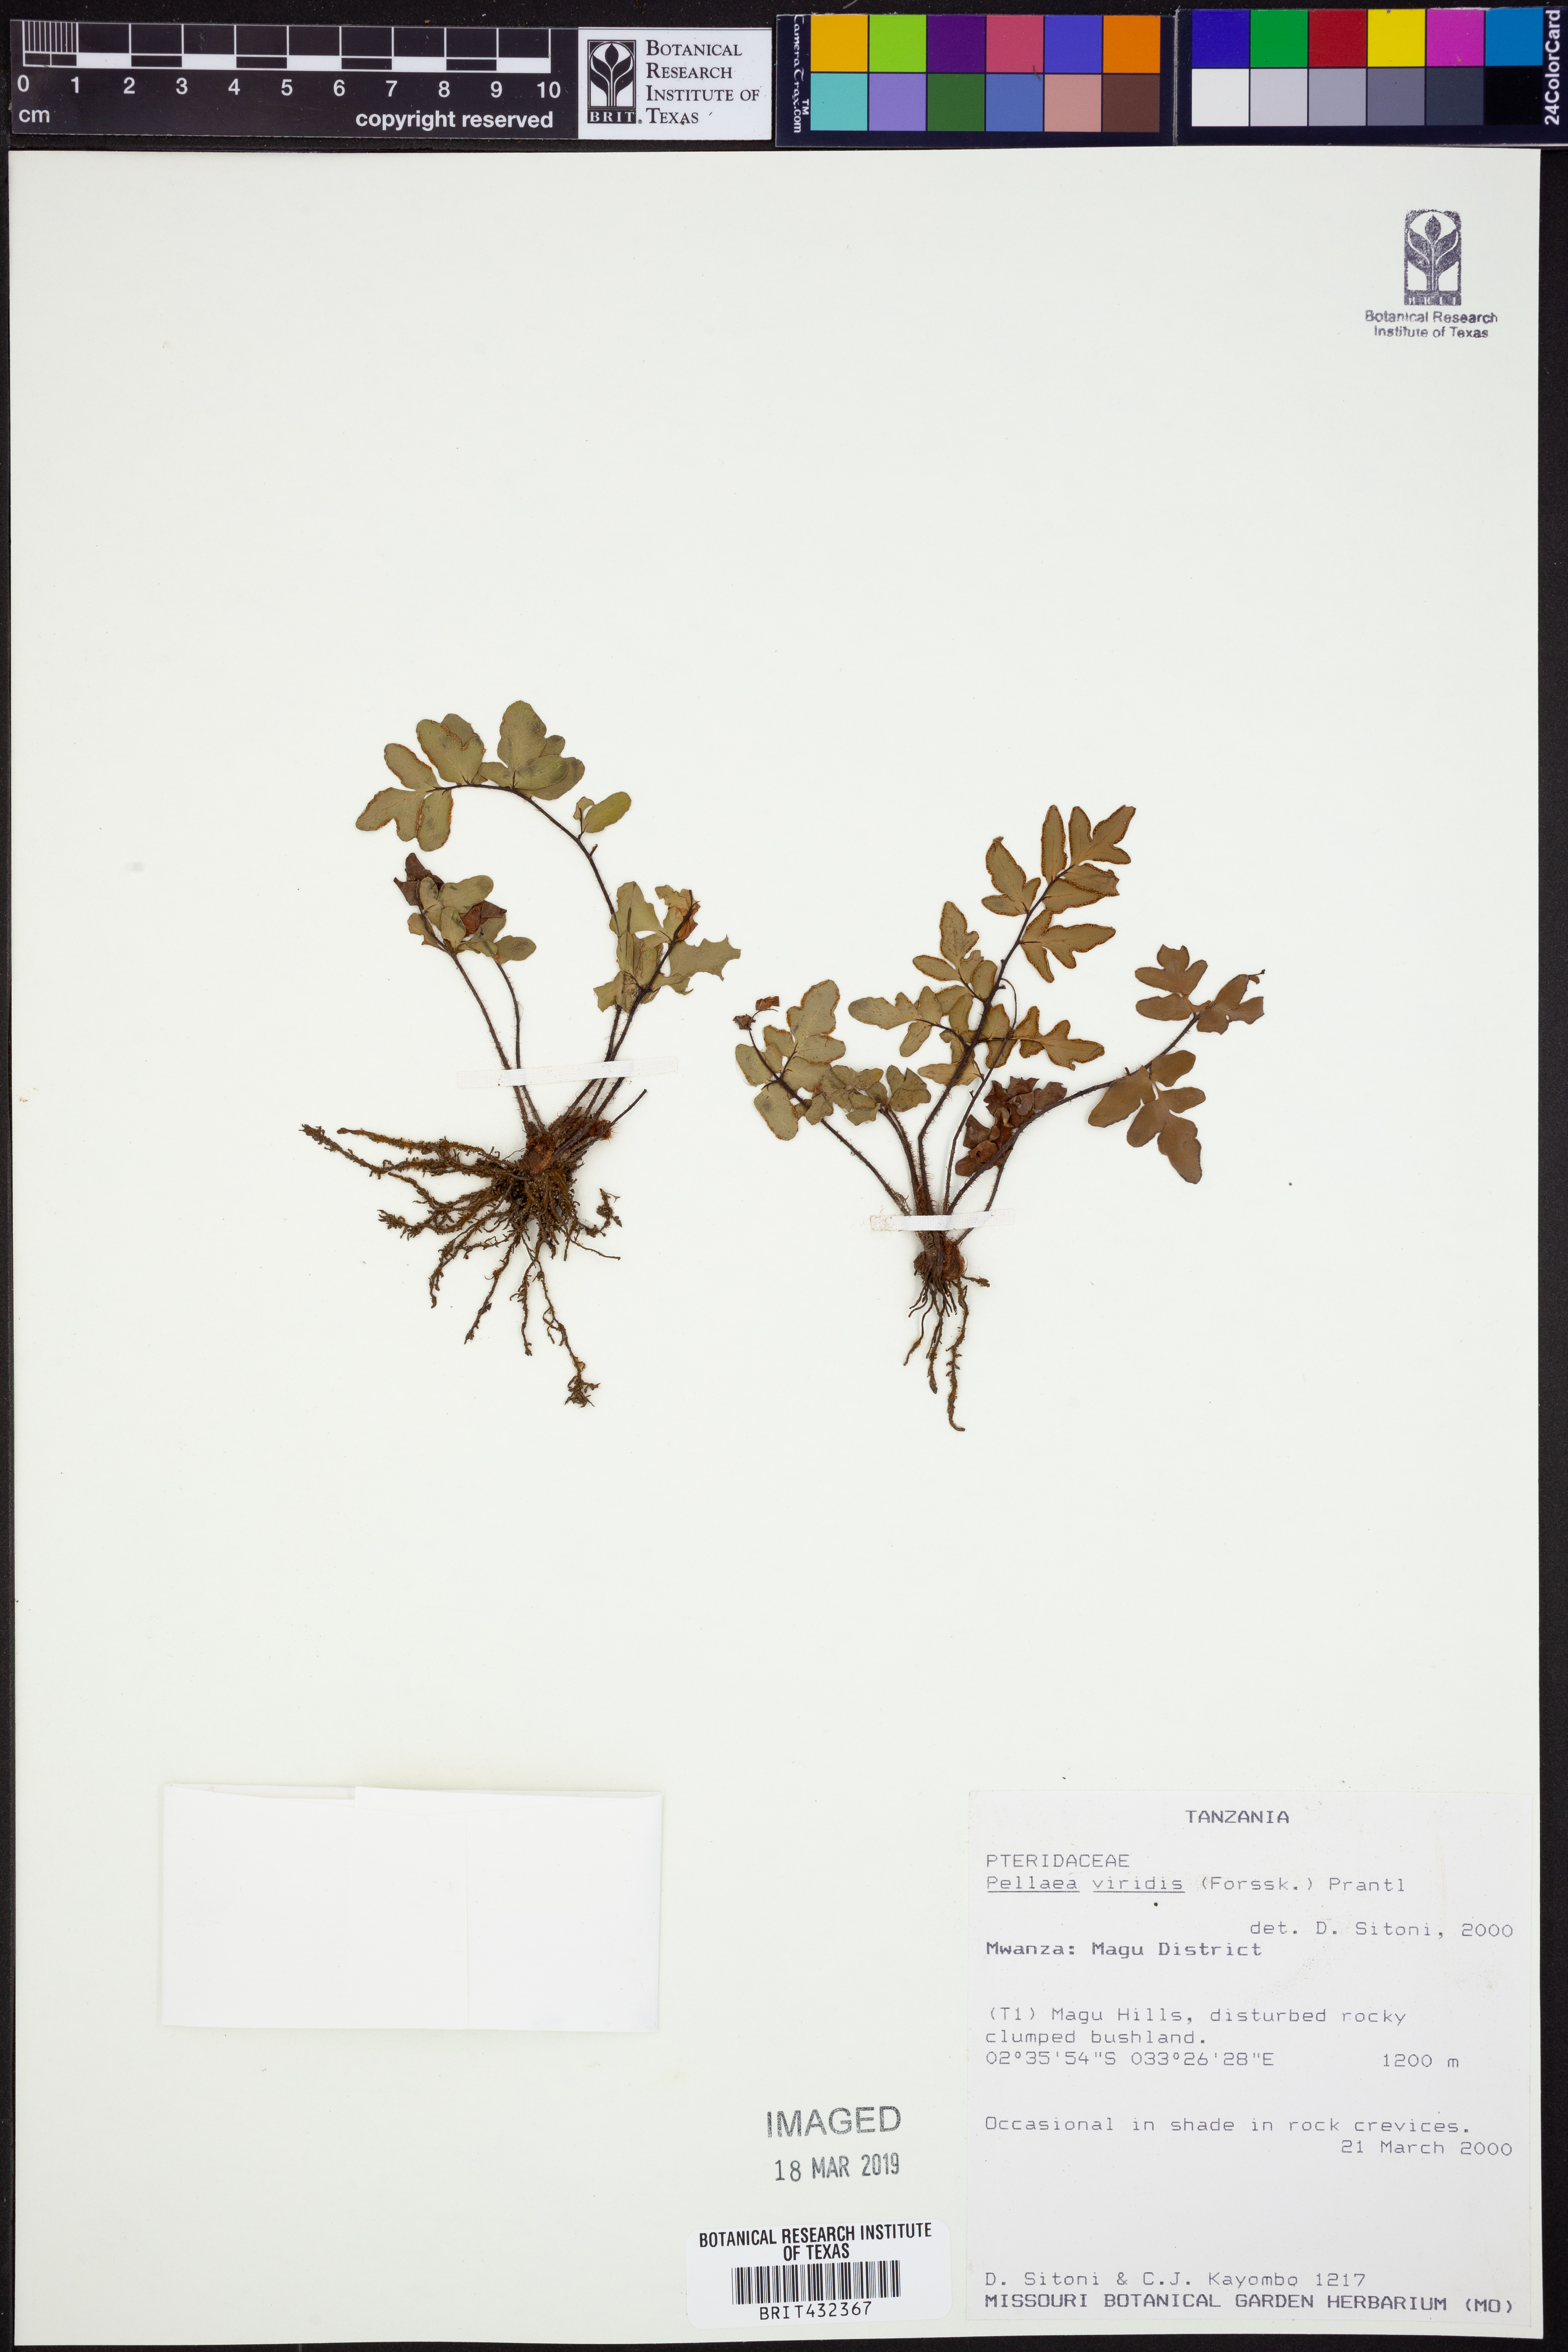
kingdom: Plantae
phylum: Tracheophyta
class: Polypodiopsida
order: Polypodiales
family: Pteridaceae
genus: Cheilanthes
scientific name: Cheilanthes viridis
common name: Green cliffbrake
